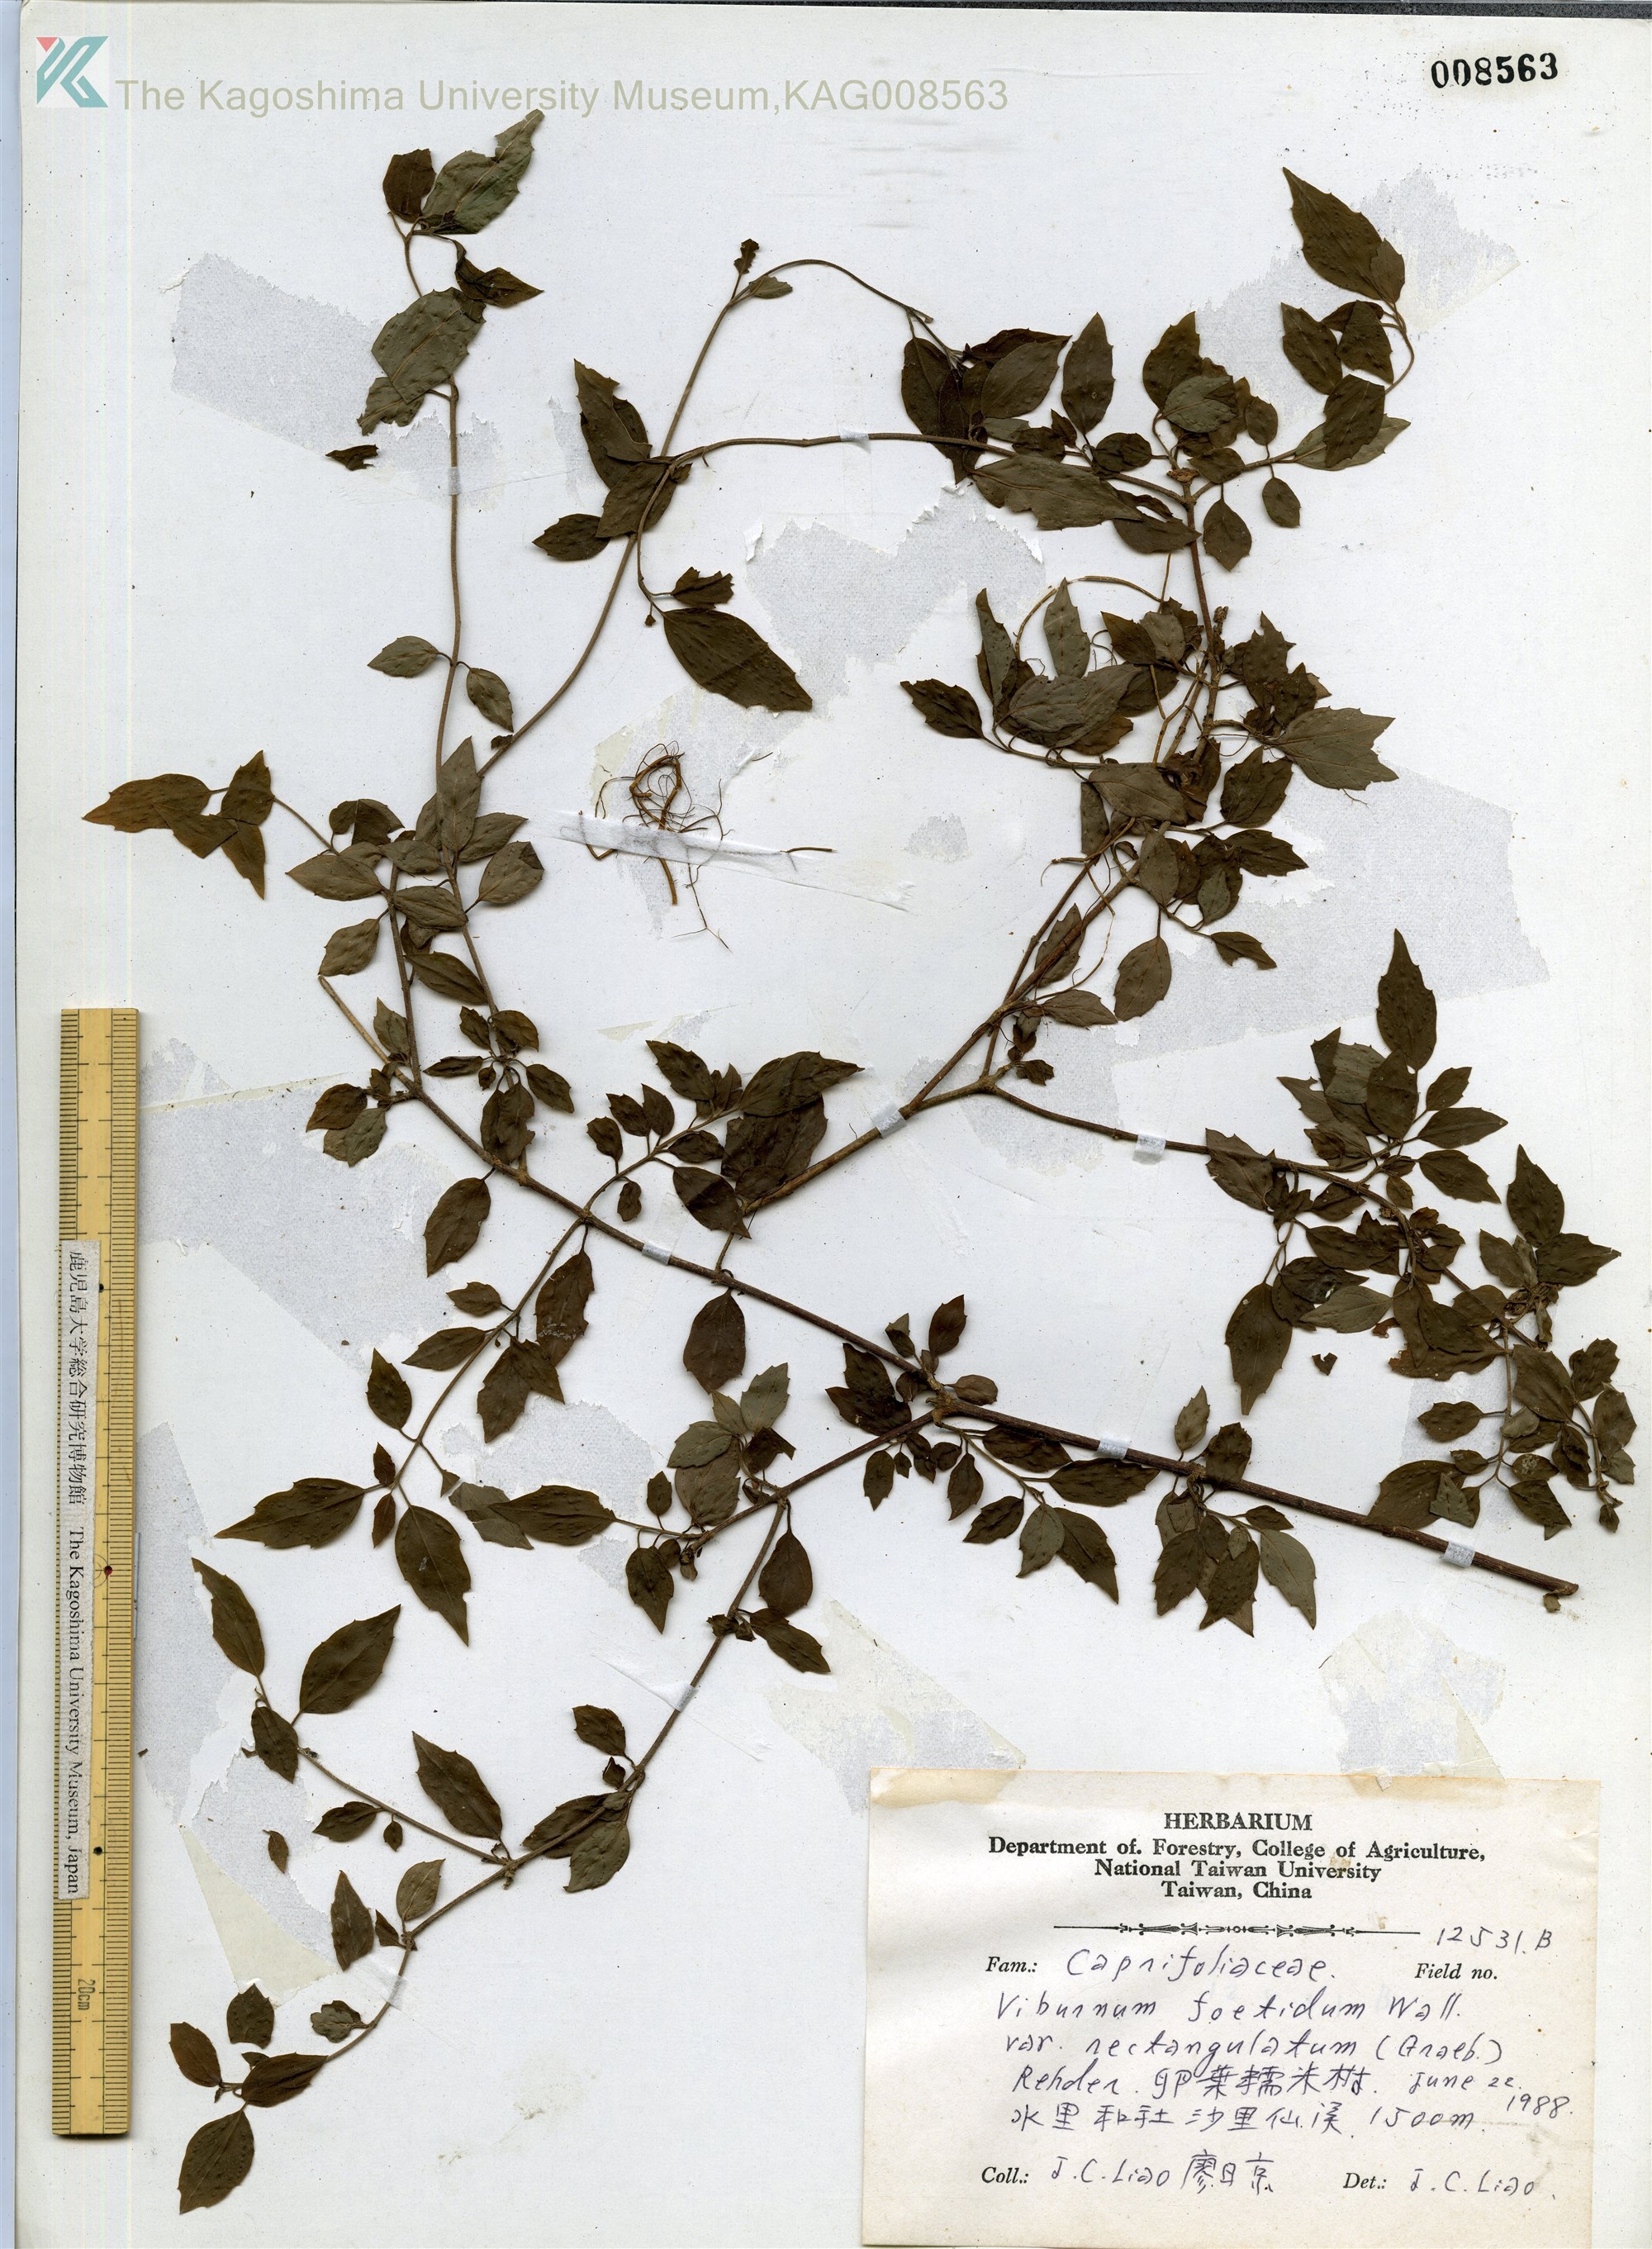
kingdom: Plantae
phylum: Tracheophyta
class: Magnoliopsida
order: Dipsacales
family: Viburnaceae
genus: Viburnum
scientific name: Viburnum foetidum
